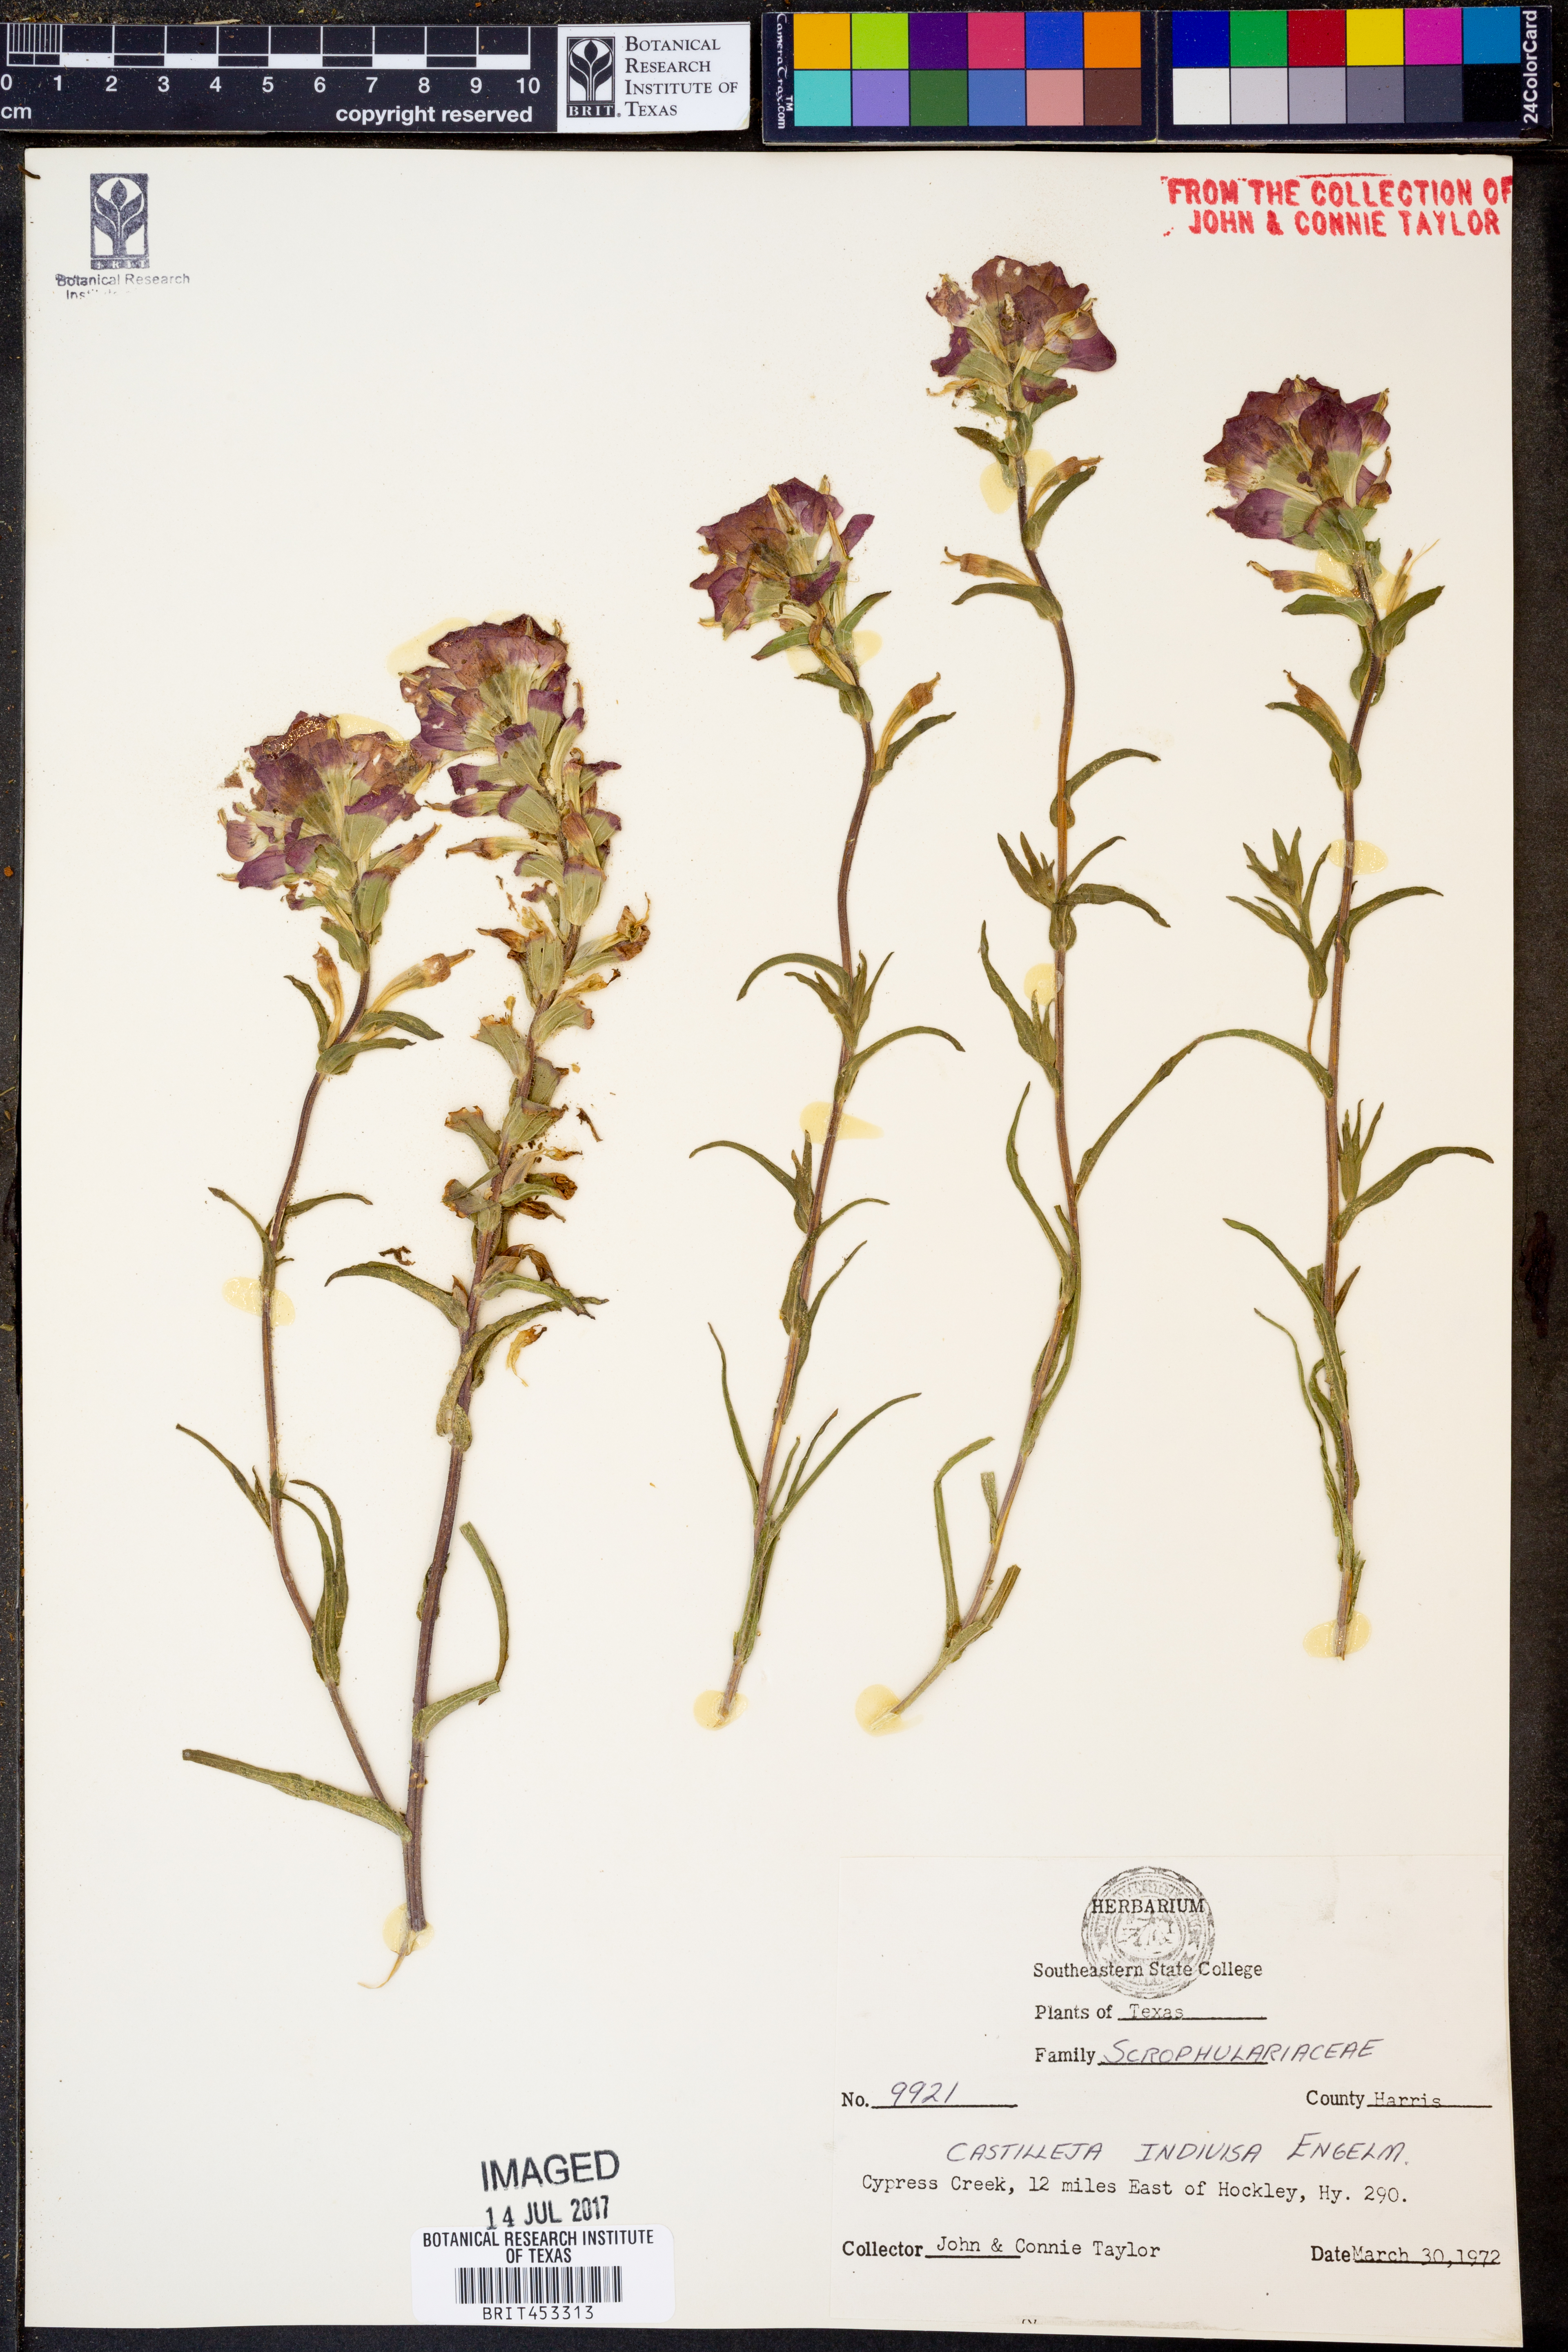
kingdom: Plantae
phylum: Tracheophyta
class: Magnoliopsida
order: Lamiales
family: Orobanchaceae
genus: Castilleja
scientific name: Castilleja indivisa
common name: Texas paintbrush
